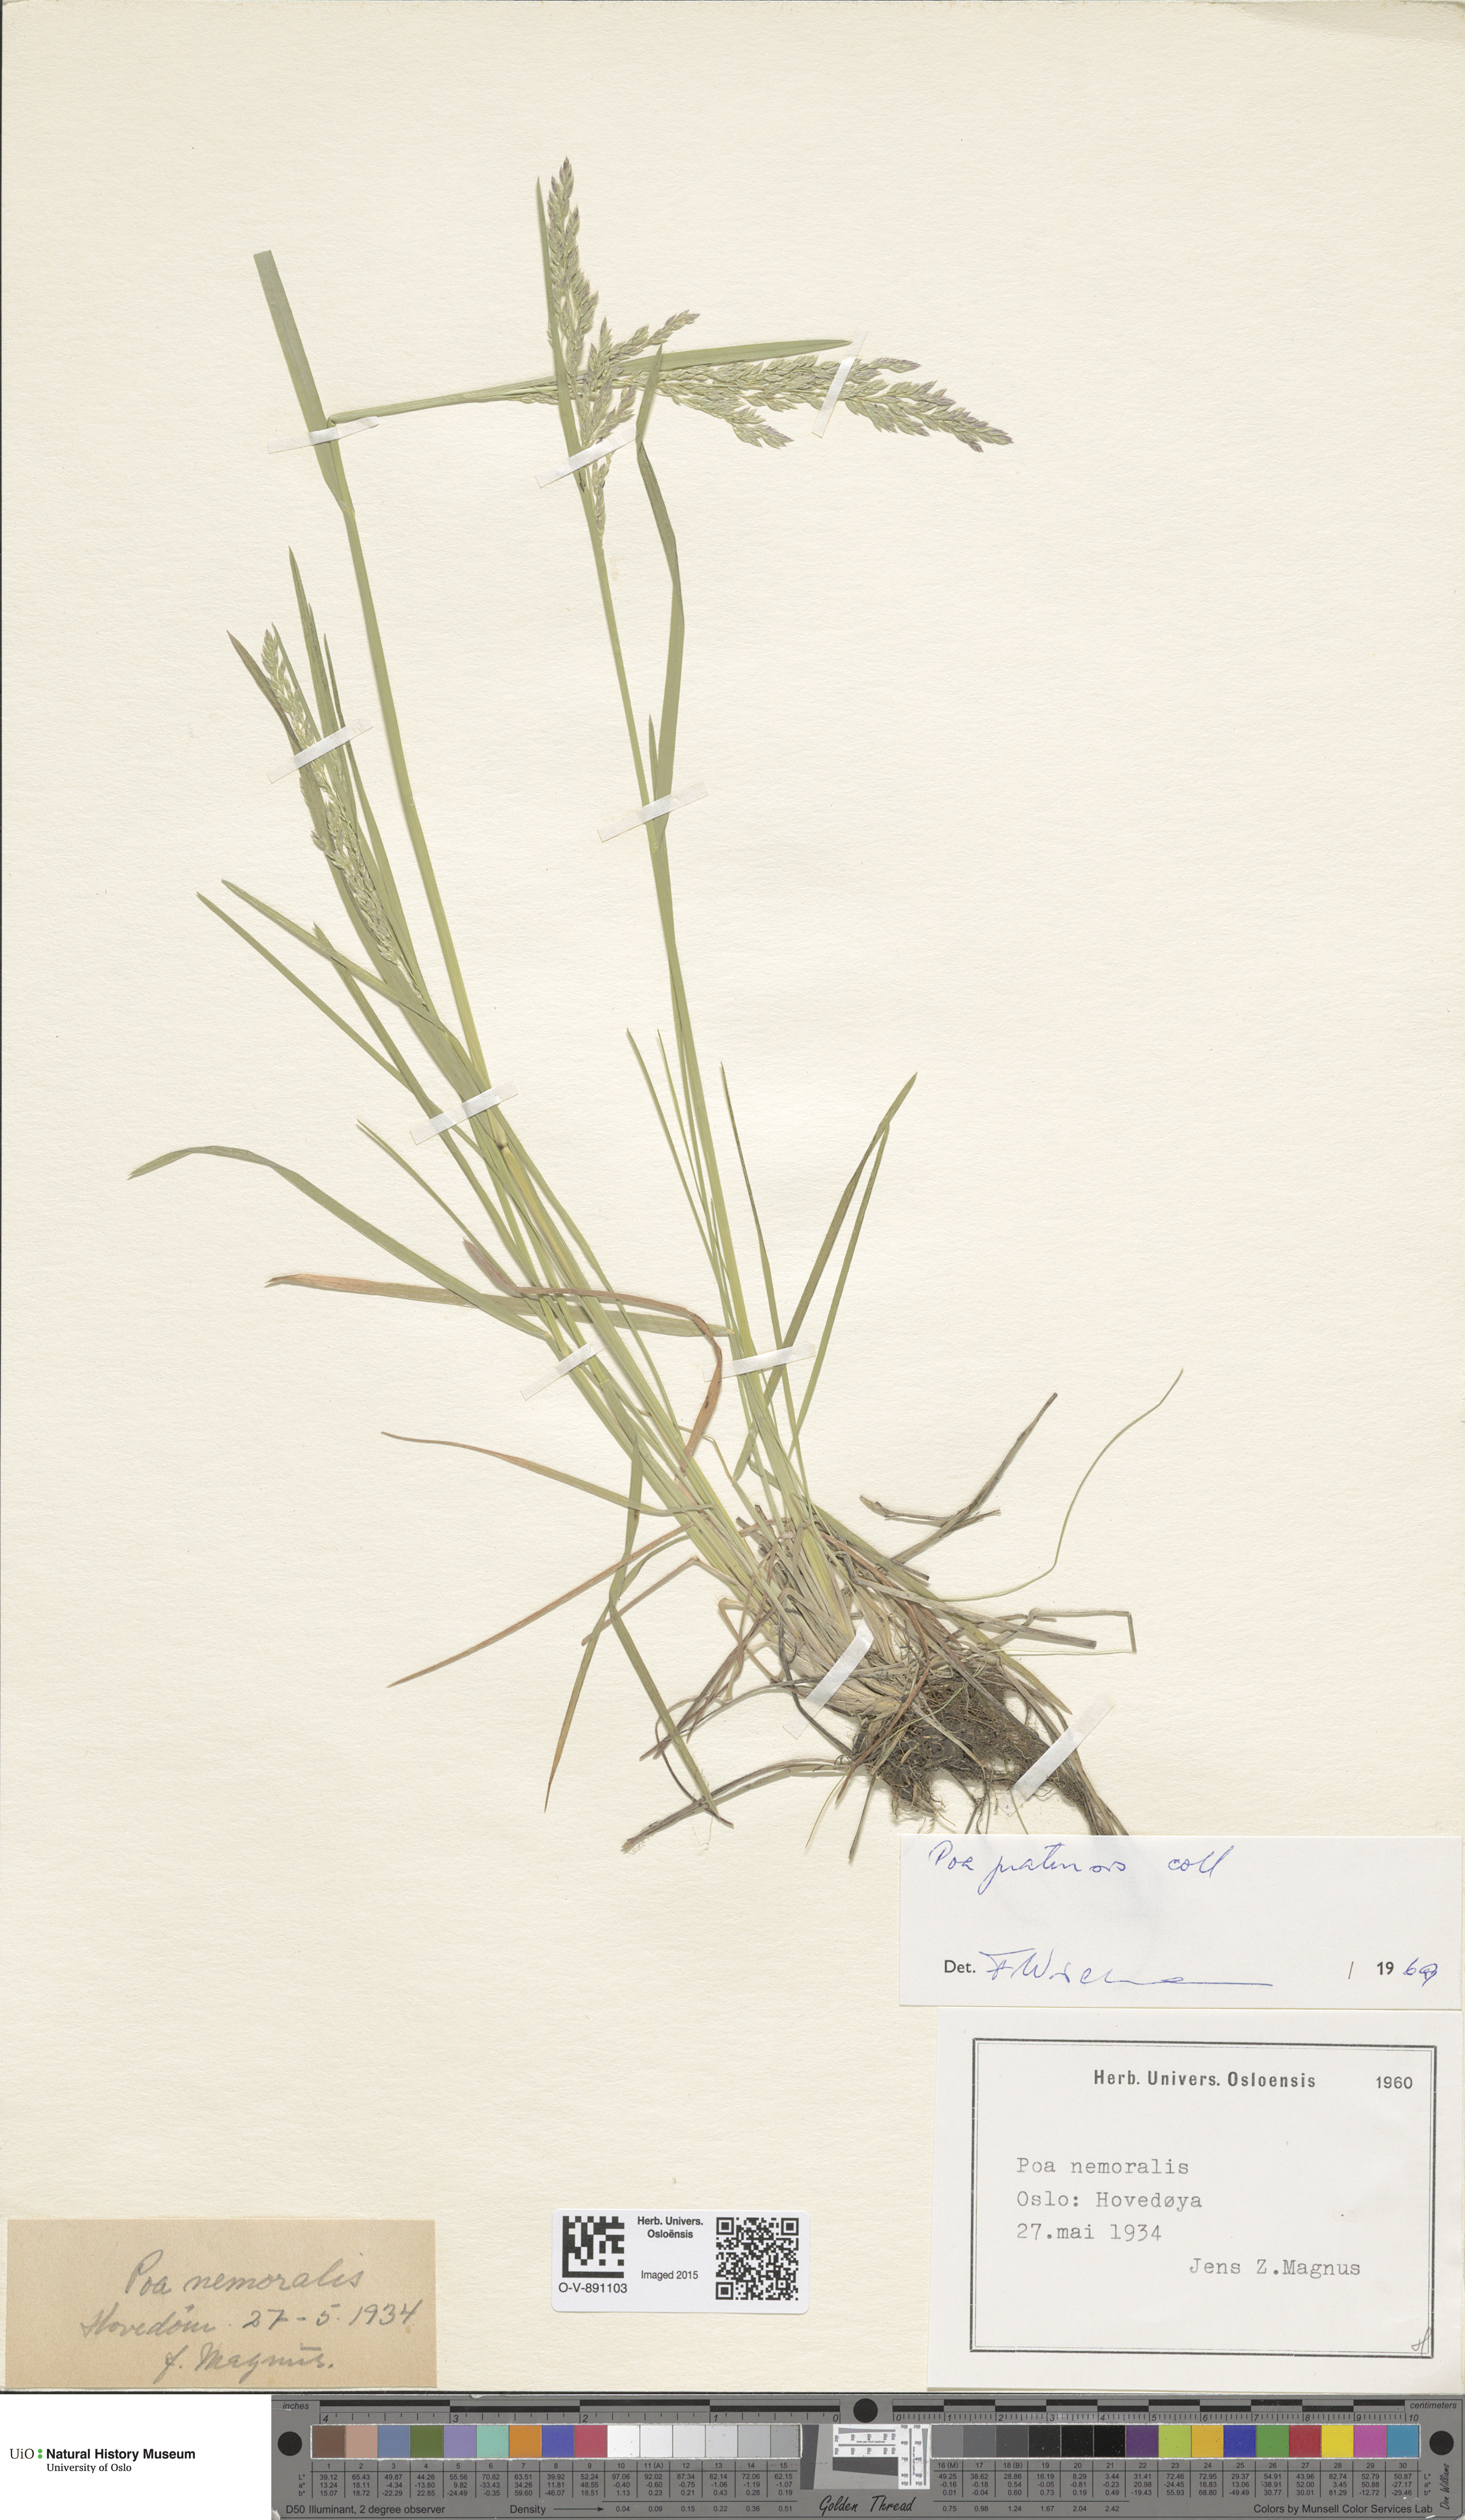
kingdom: Plantae
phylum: Tracheophyta
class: Liliopsida
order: Poales
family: Poaceae
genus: Poa
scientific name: Poa pratensis
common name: Kentucky bluegrass
